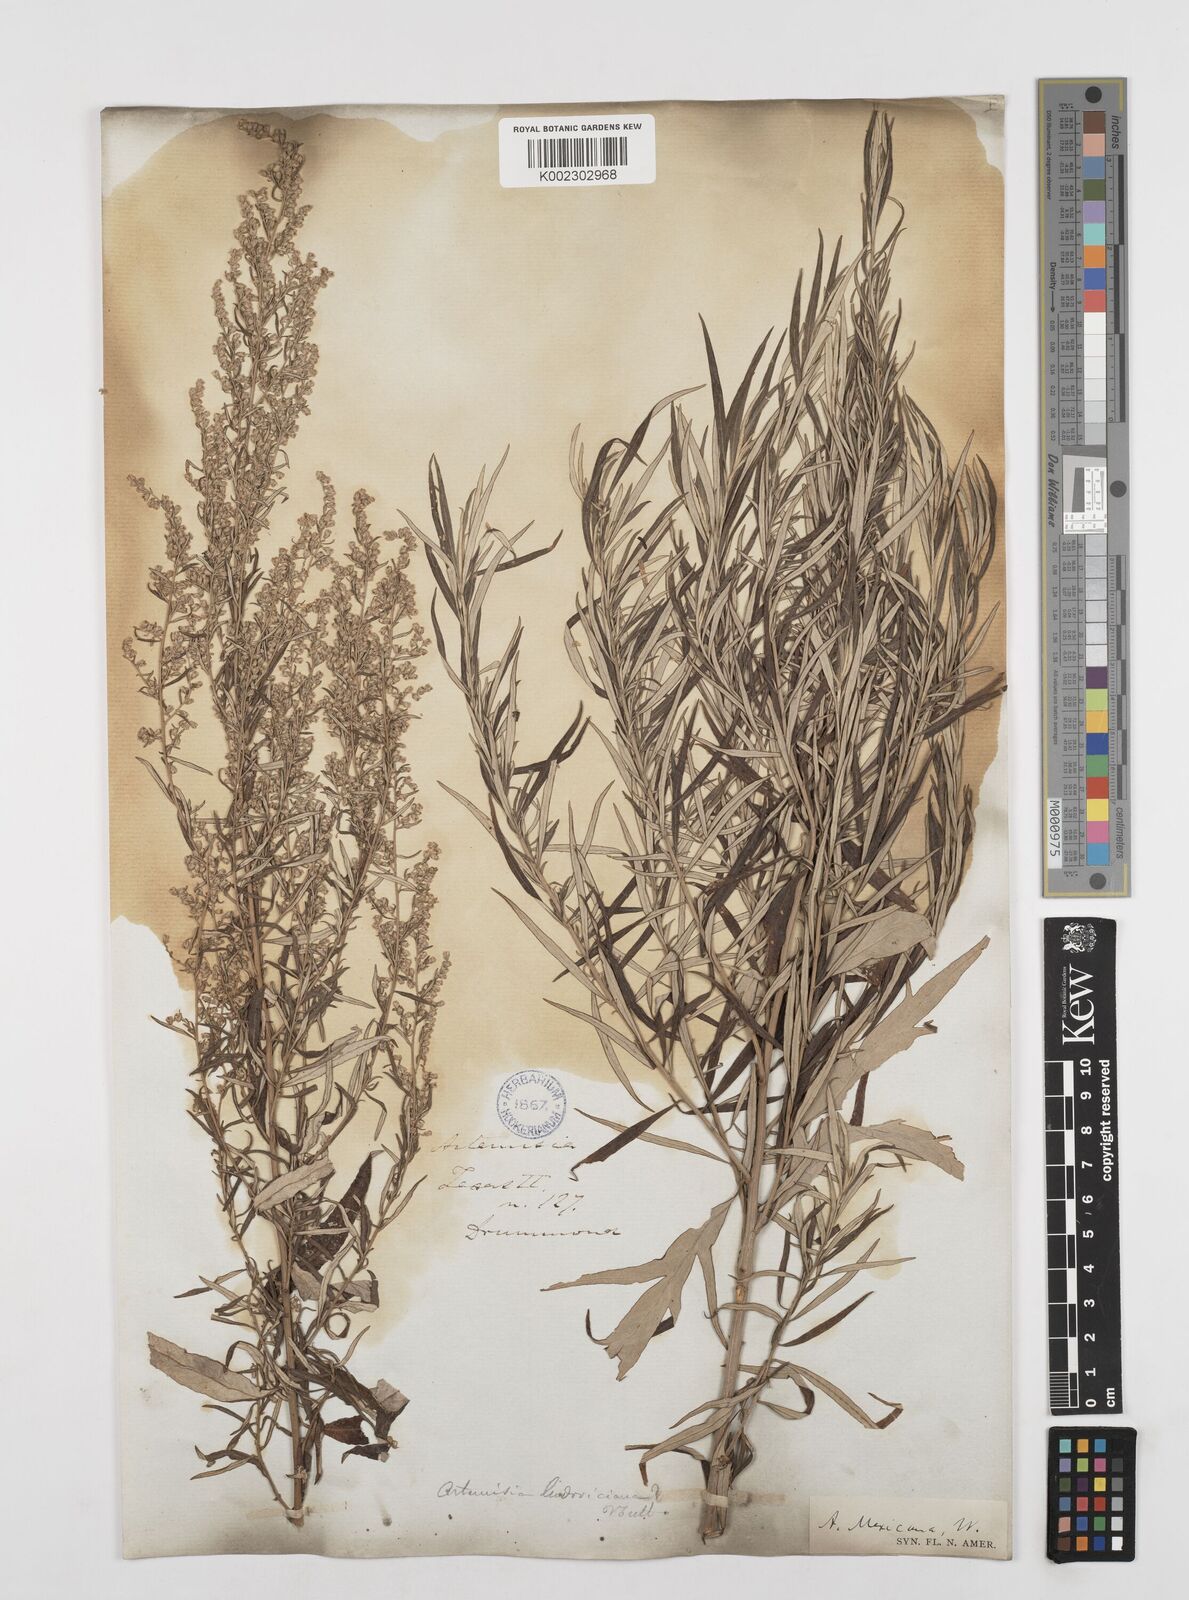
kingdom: Plantae
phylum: Tracheophyta
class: Magnoliopsida
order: Asterales
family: Asteraceae
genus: Artemisia
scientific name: Artemisia ludoviciana
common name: Western mugwort
